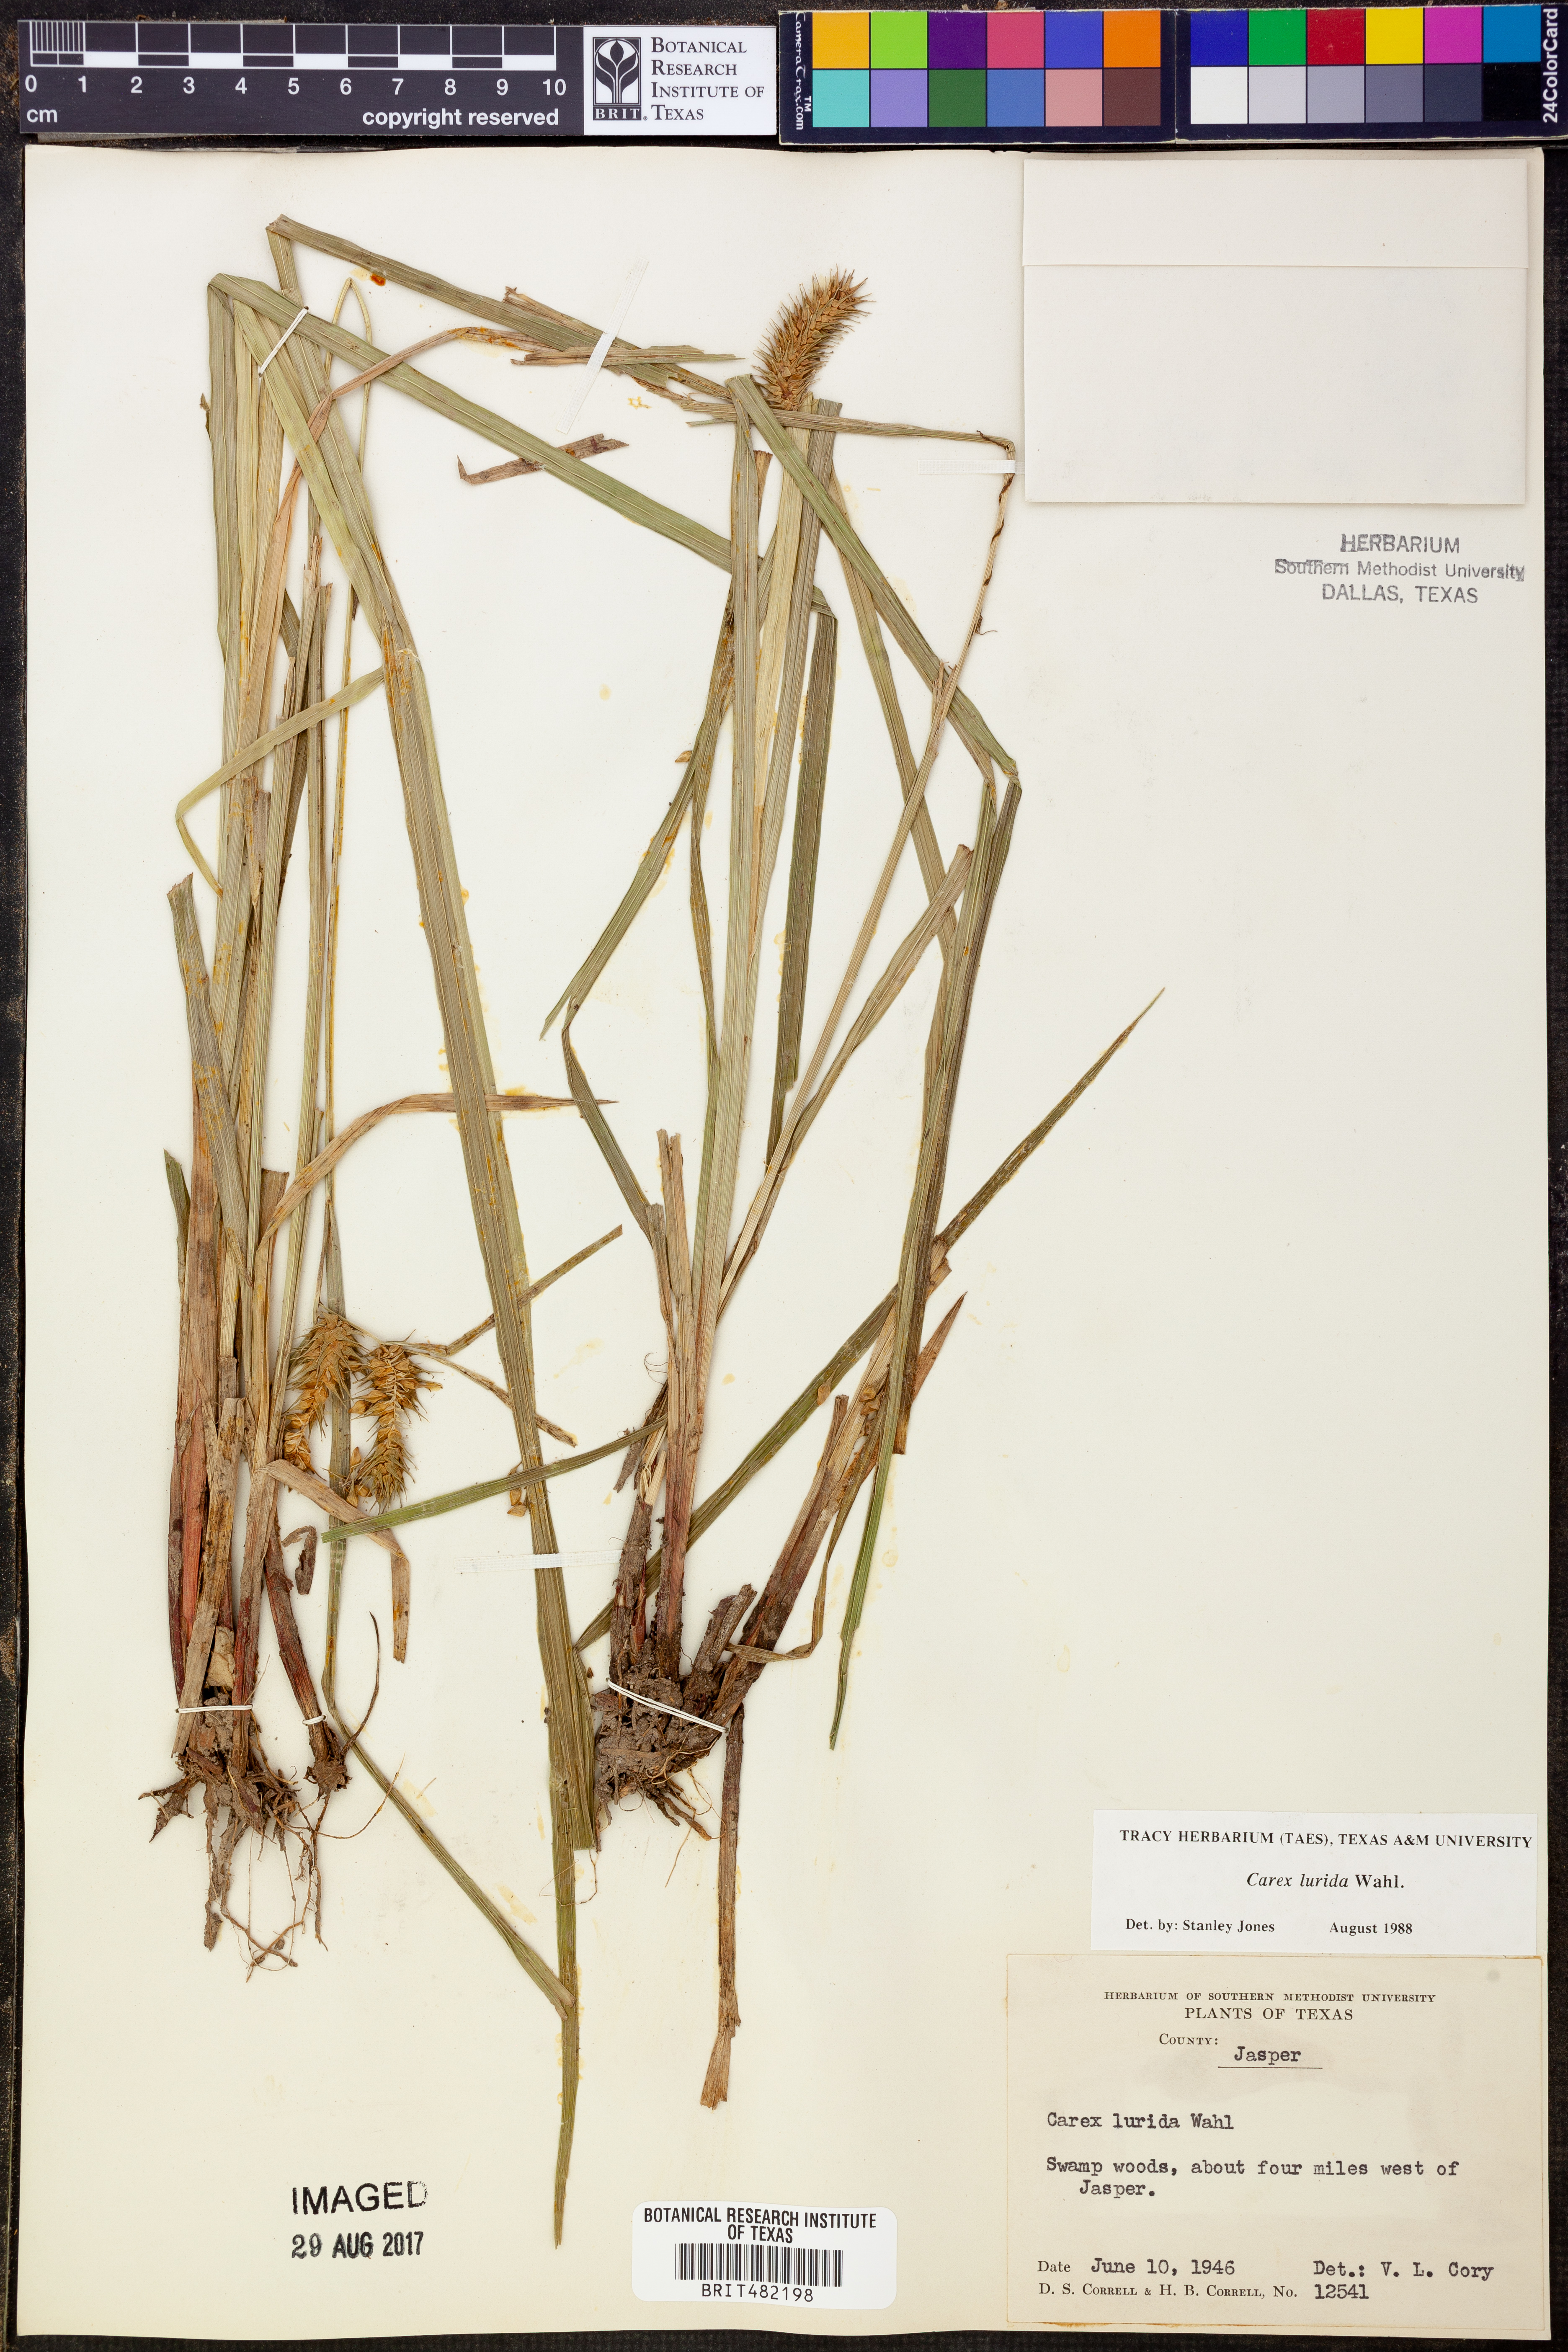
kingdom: Plantae
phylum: Tracheophyta
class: Liliopsida
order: Poales
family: Cyperaceae
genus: Carex
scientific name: Carex lurida
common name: Sallow sedge
